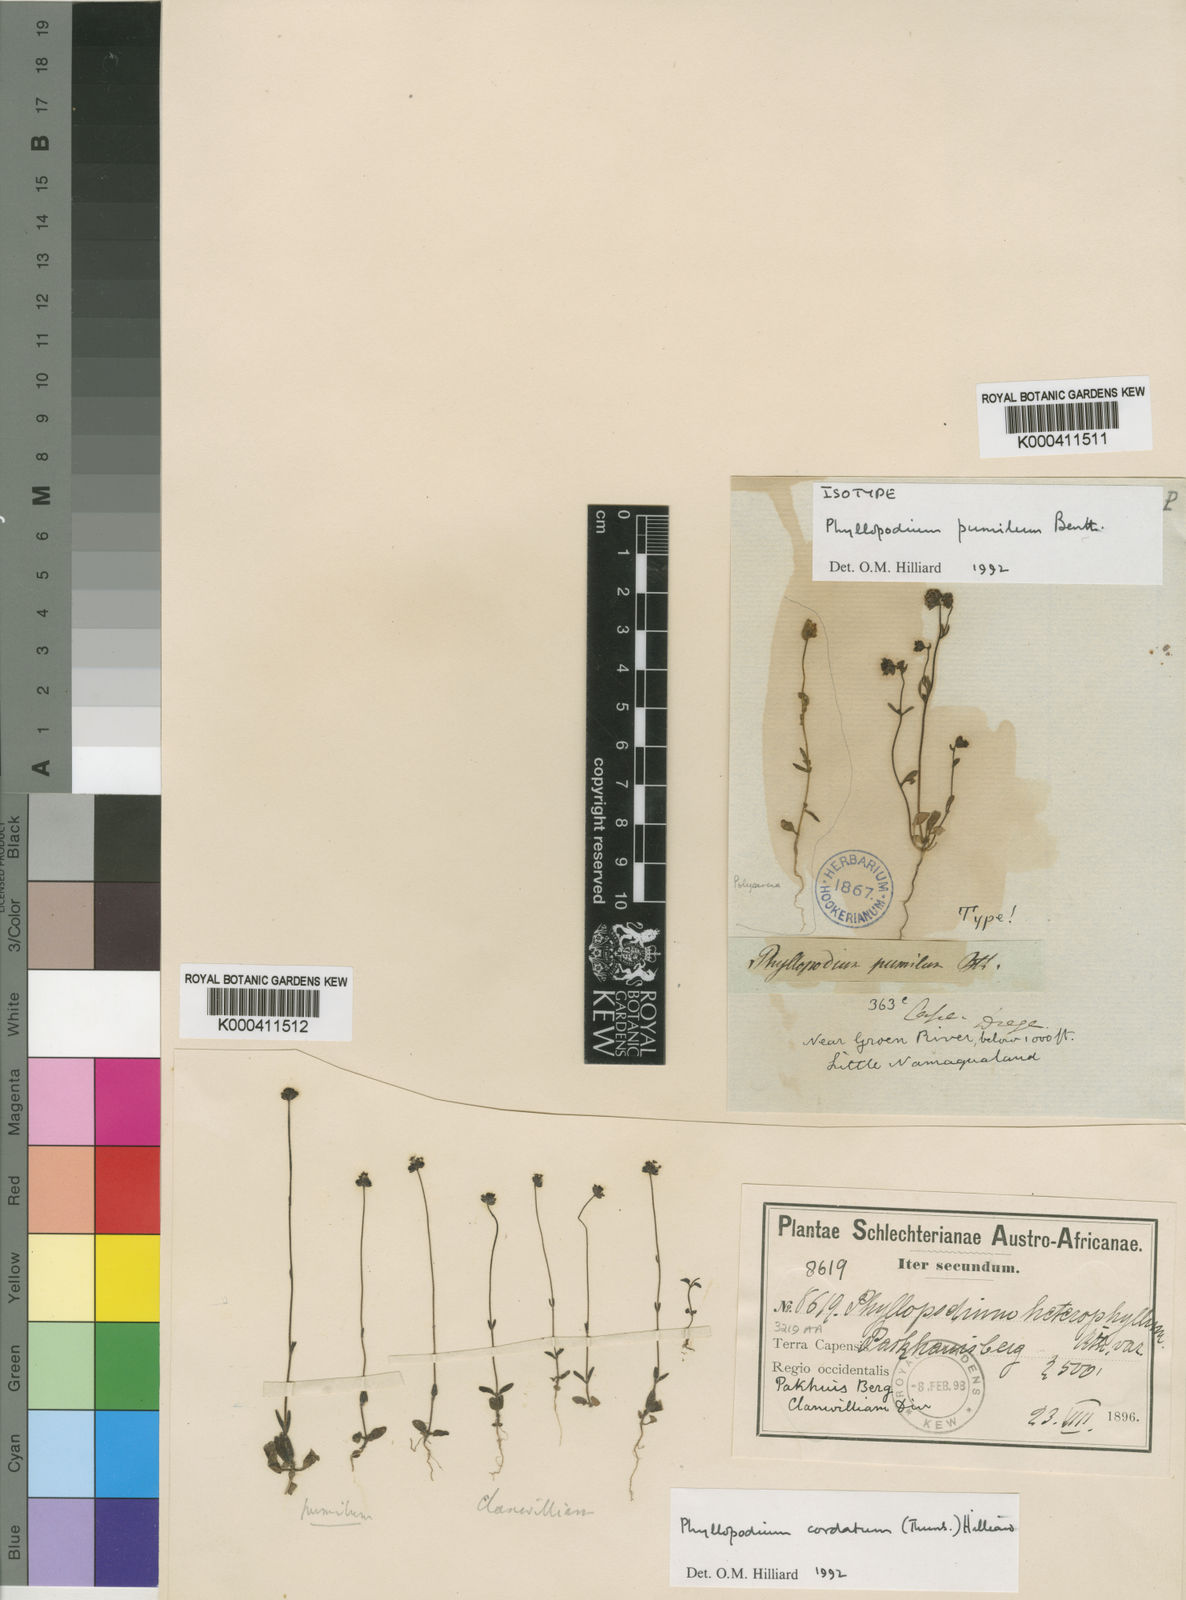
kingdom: Plantae
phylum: Tracheophyta
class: Magnoliopsida
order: Lamiales
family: Scrophulariaceae
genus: Phyllopodium
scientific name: Phyllopodium pumilum
